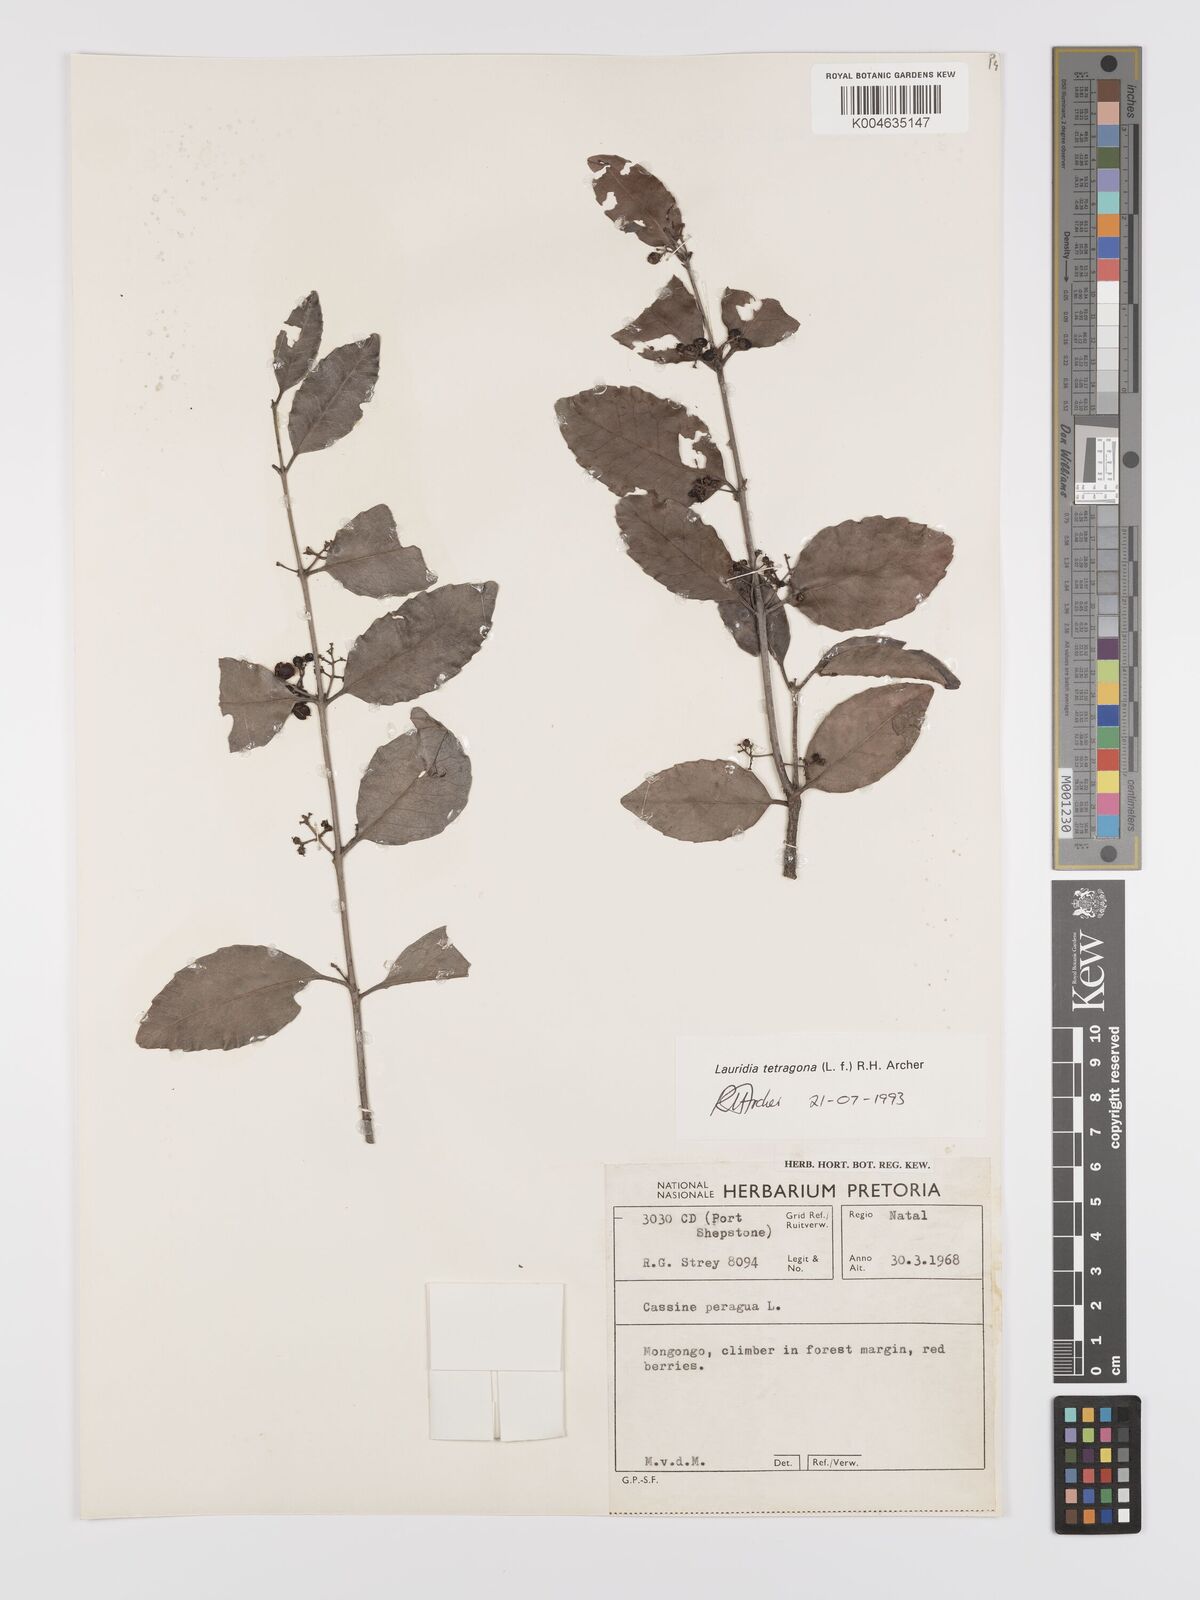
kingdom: Plantae
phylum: Tracheophyta
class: Magnoliopsida
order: Celastrales
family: Celastraceae
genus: Lauridia
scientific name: Lauridia tetragona
